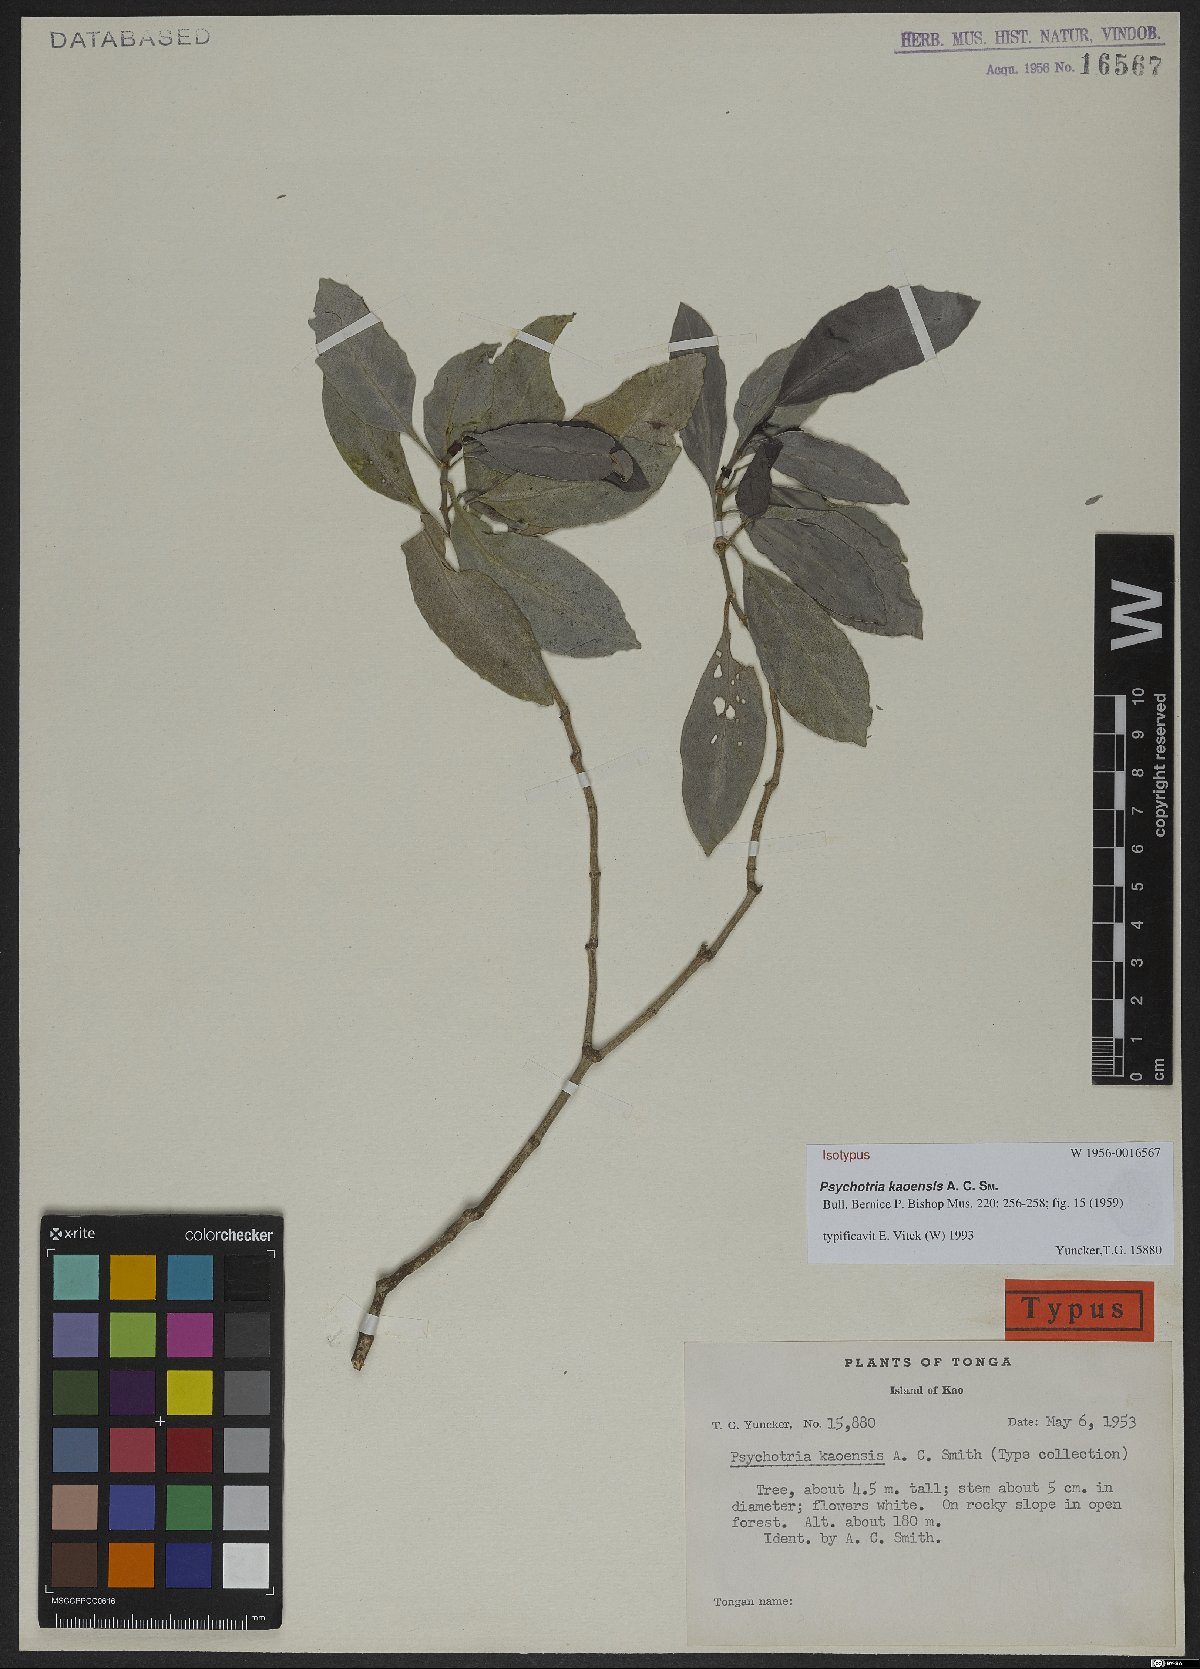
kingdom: Plantae
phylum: Tracheophyta
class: Magnoliopsida
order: Gentianales
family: Rubiaceae
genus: Psychotria
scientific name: Psychotria kaoensis
